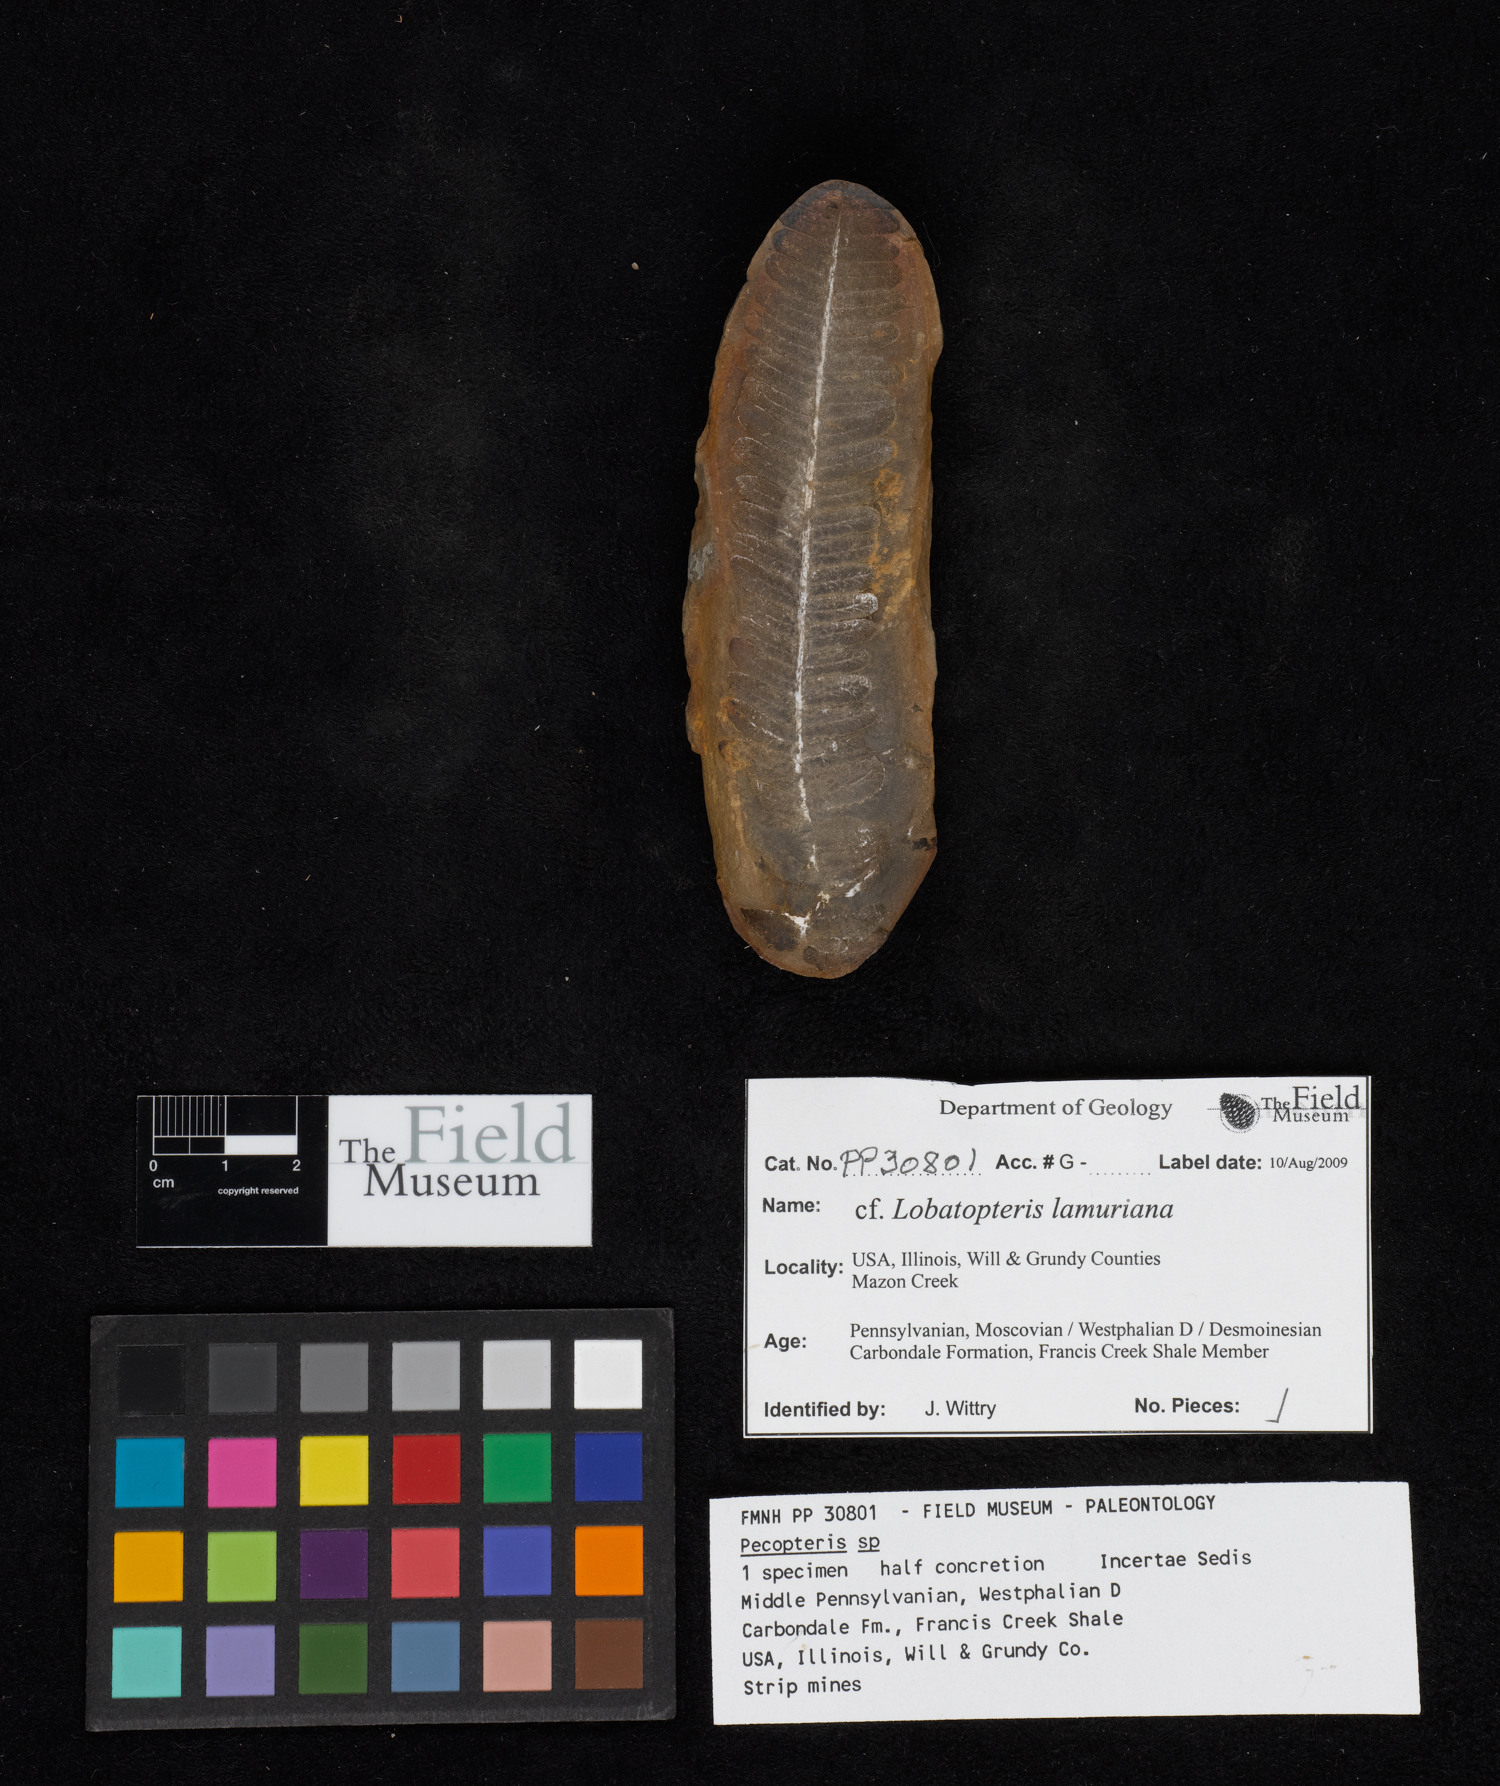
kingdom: Plantae
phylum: Tracheophyta
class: Polypodiopsida
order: Marattiales
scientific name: Marattiales
